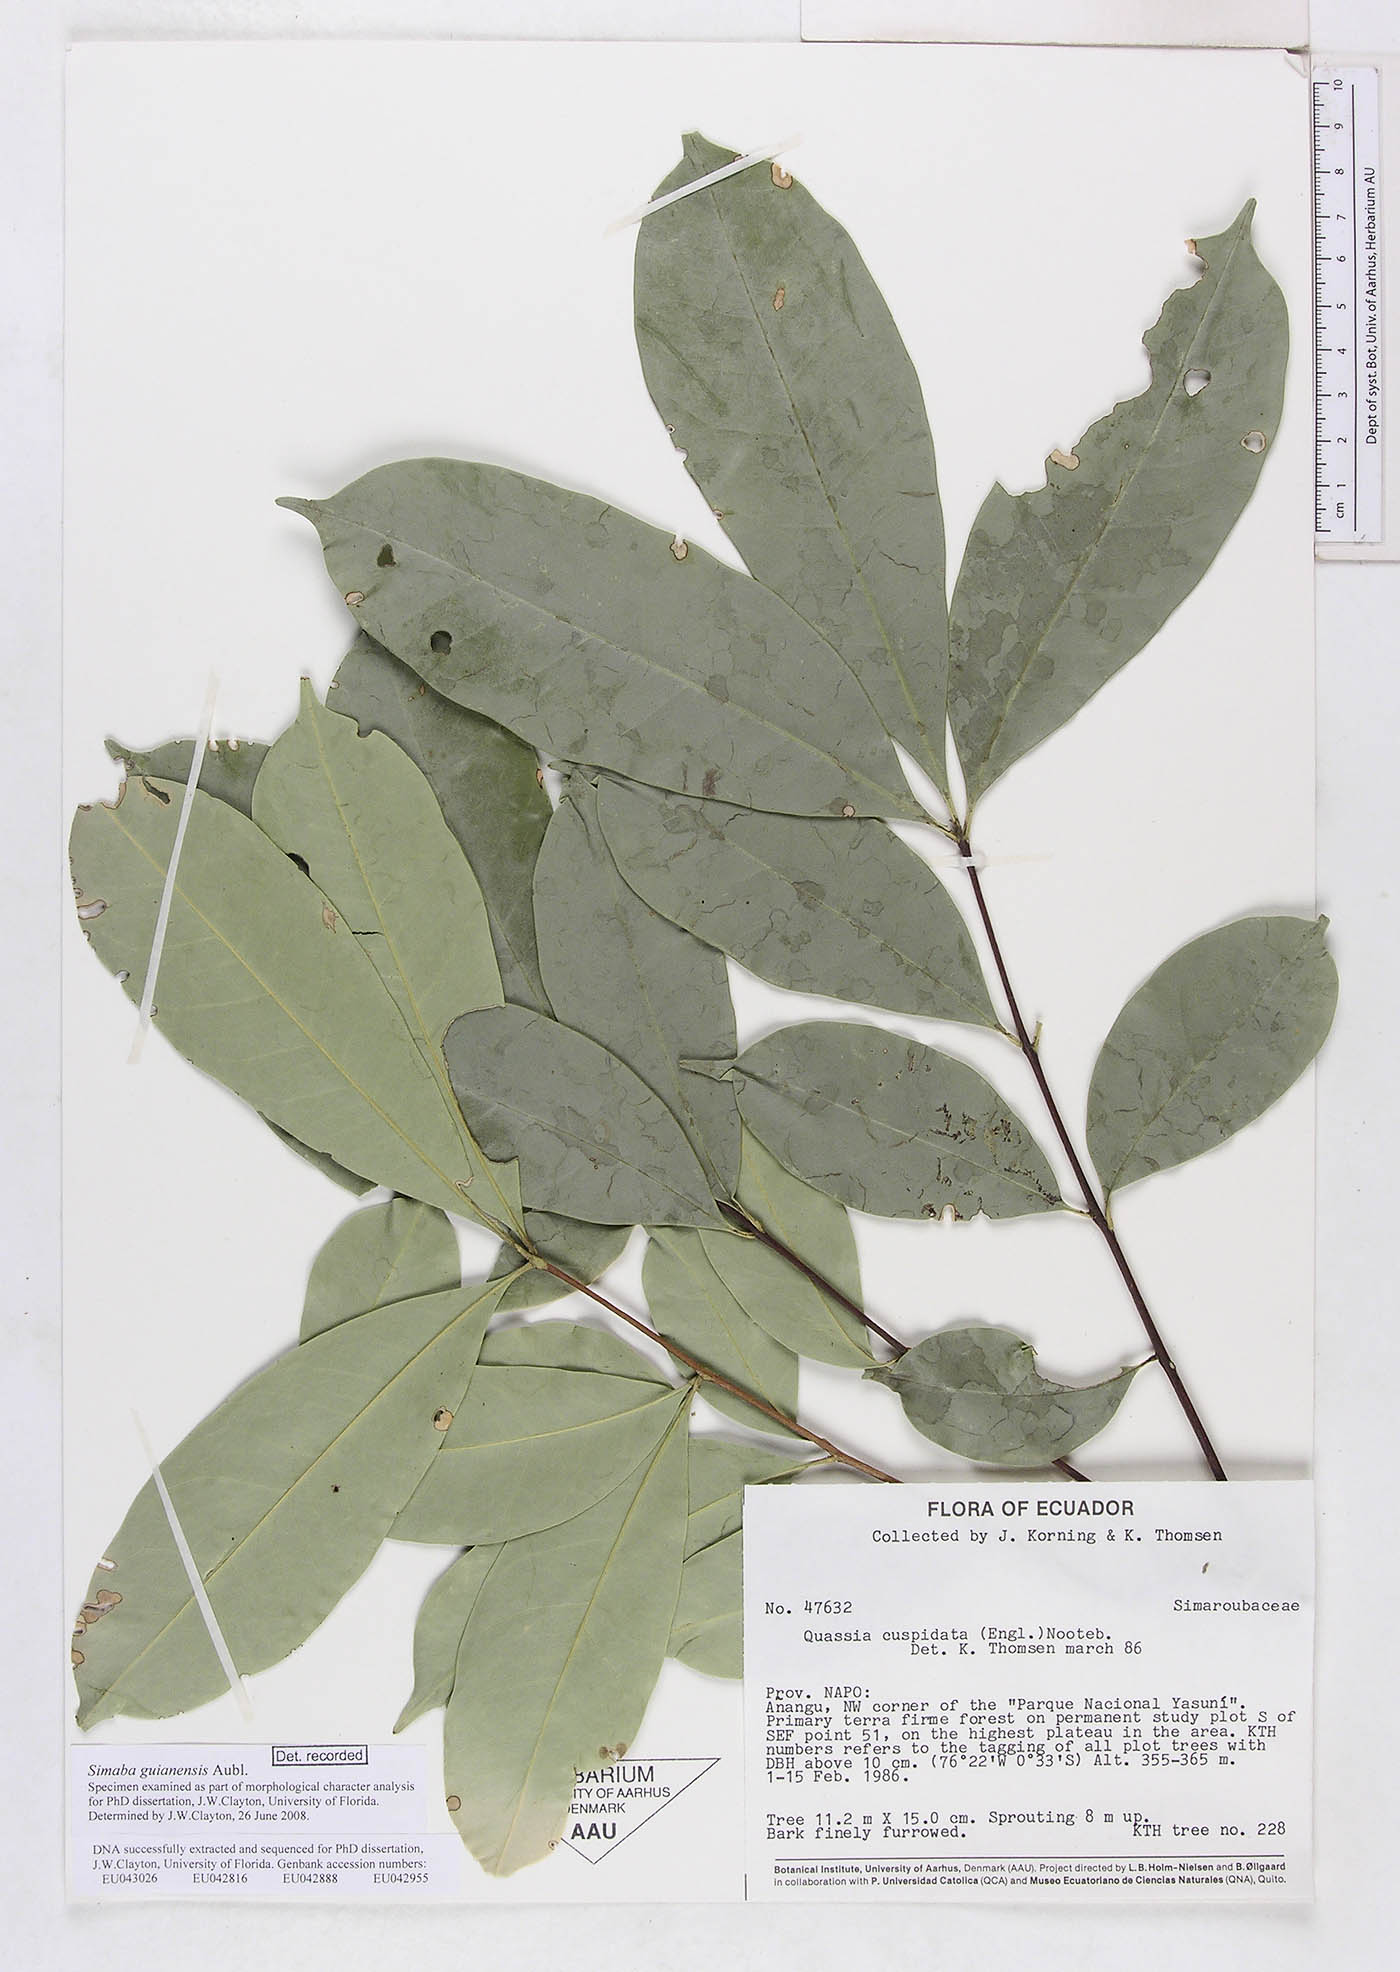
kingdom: Plantae
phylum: Tracheophyta
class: Magnoliopsida
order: Sapindales
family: Simaroubaceae
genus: Simaba
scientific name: Simaba guianensis
